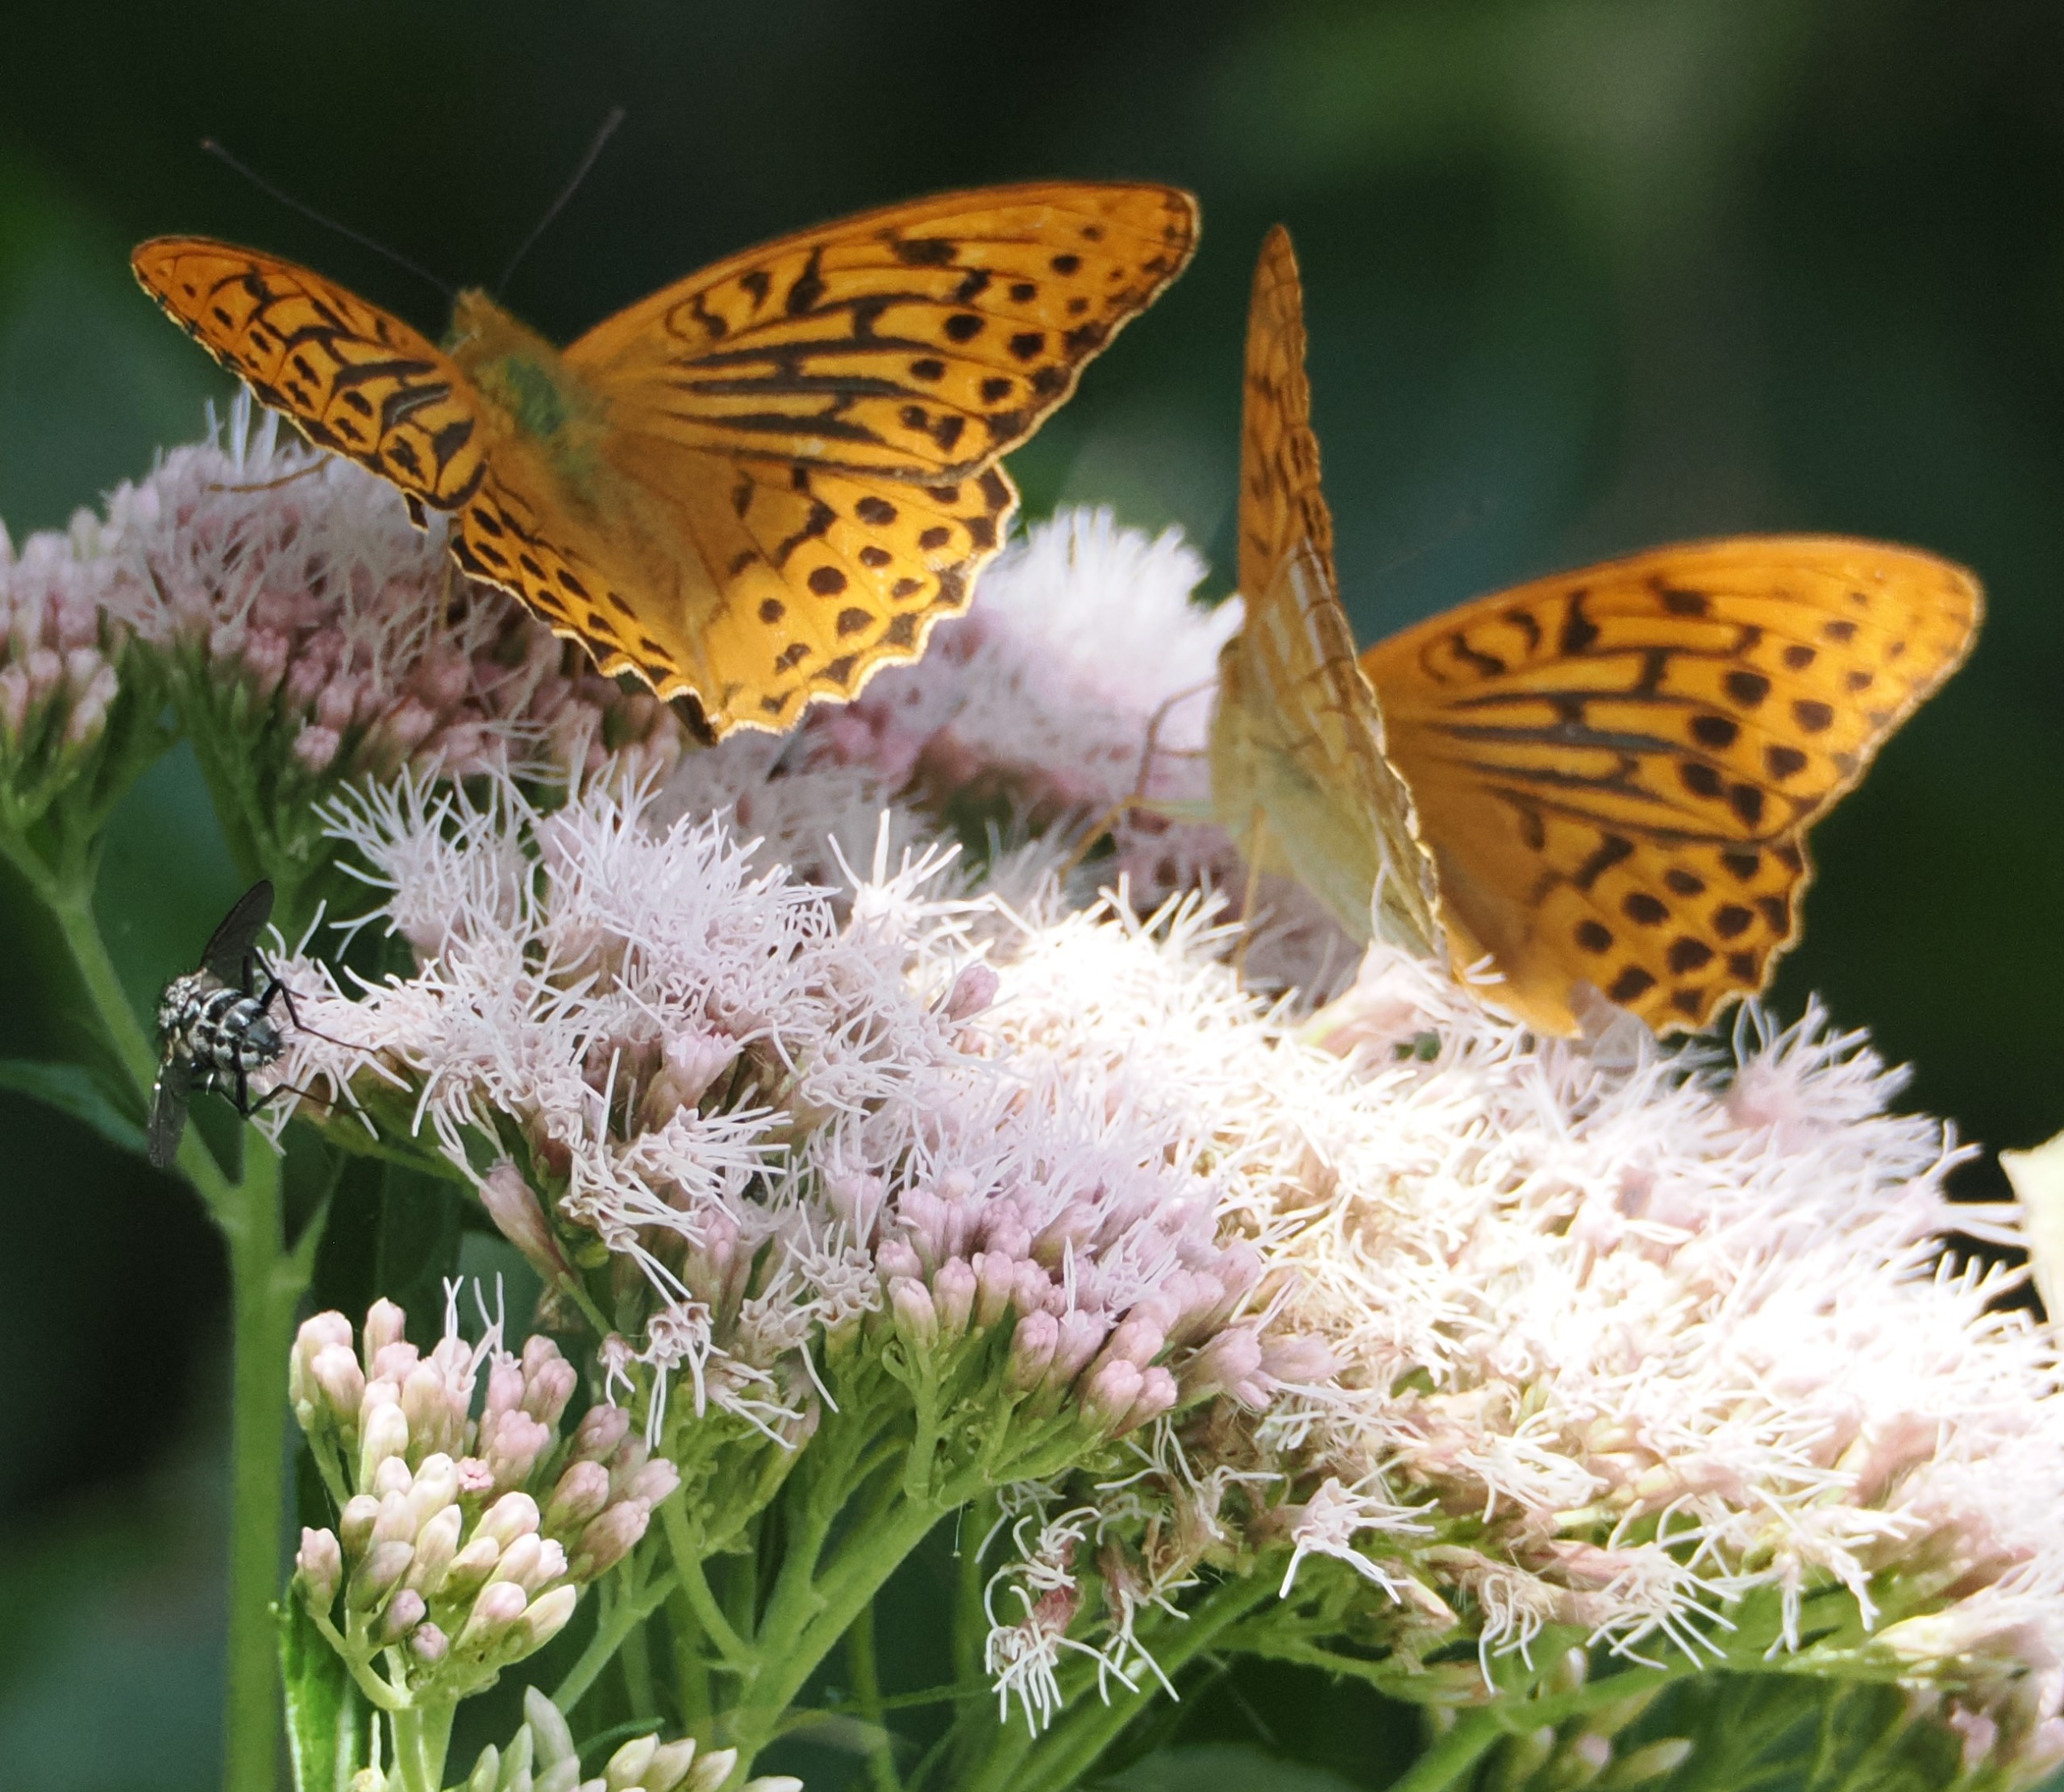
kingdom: Animalia
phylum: Arthropoda
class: Insecta
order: Lepidoptera
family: Nymphalidae
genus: Argynnis
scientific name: Argynnis paphia
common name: Kejserkåbe
